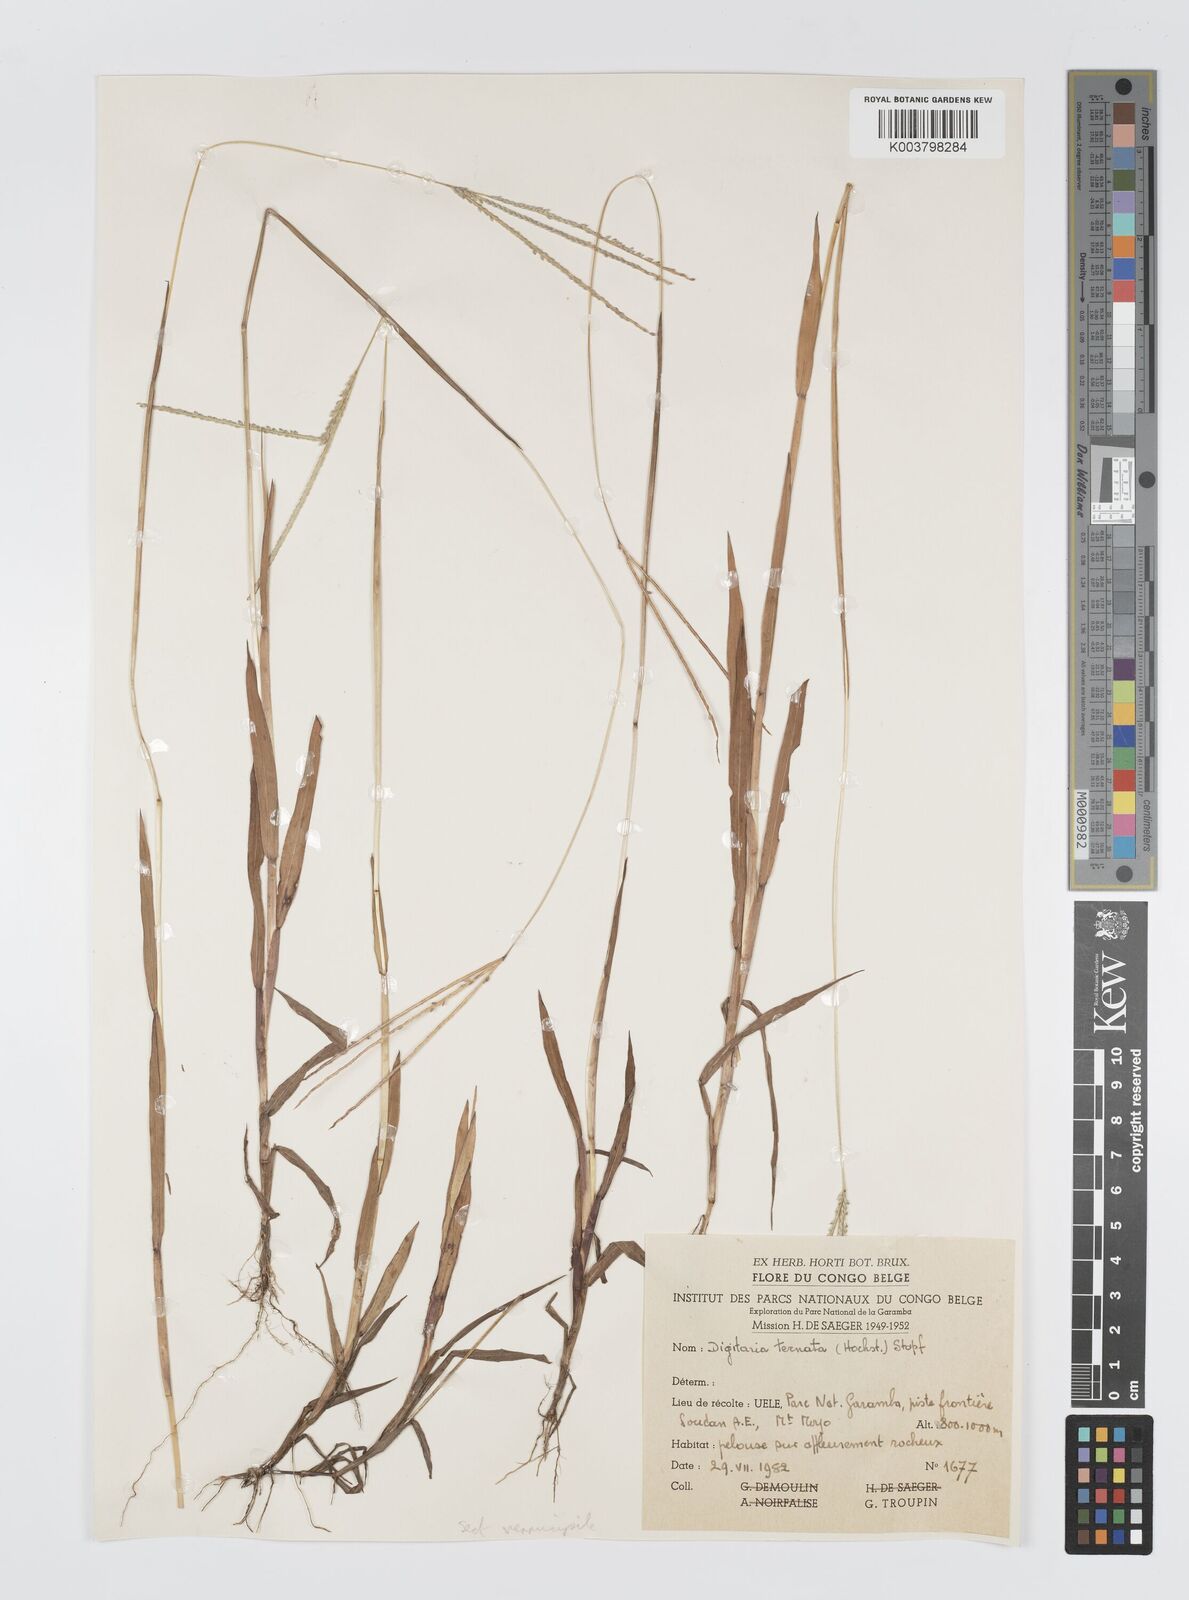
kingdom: Plantae
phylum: Tracheophyta
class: Liliopsida
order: Poales
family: Poaceae
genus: Digitaria
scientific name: Digitaria longiflora
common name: Wire crabgrass
